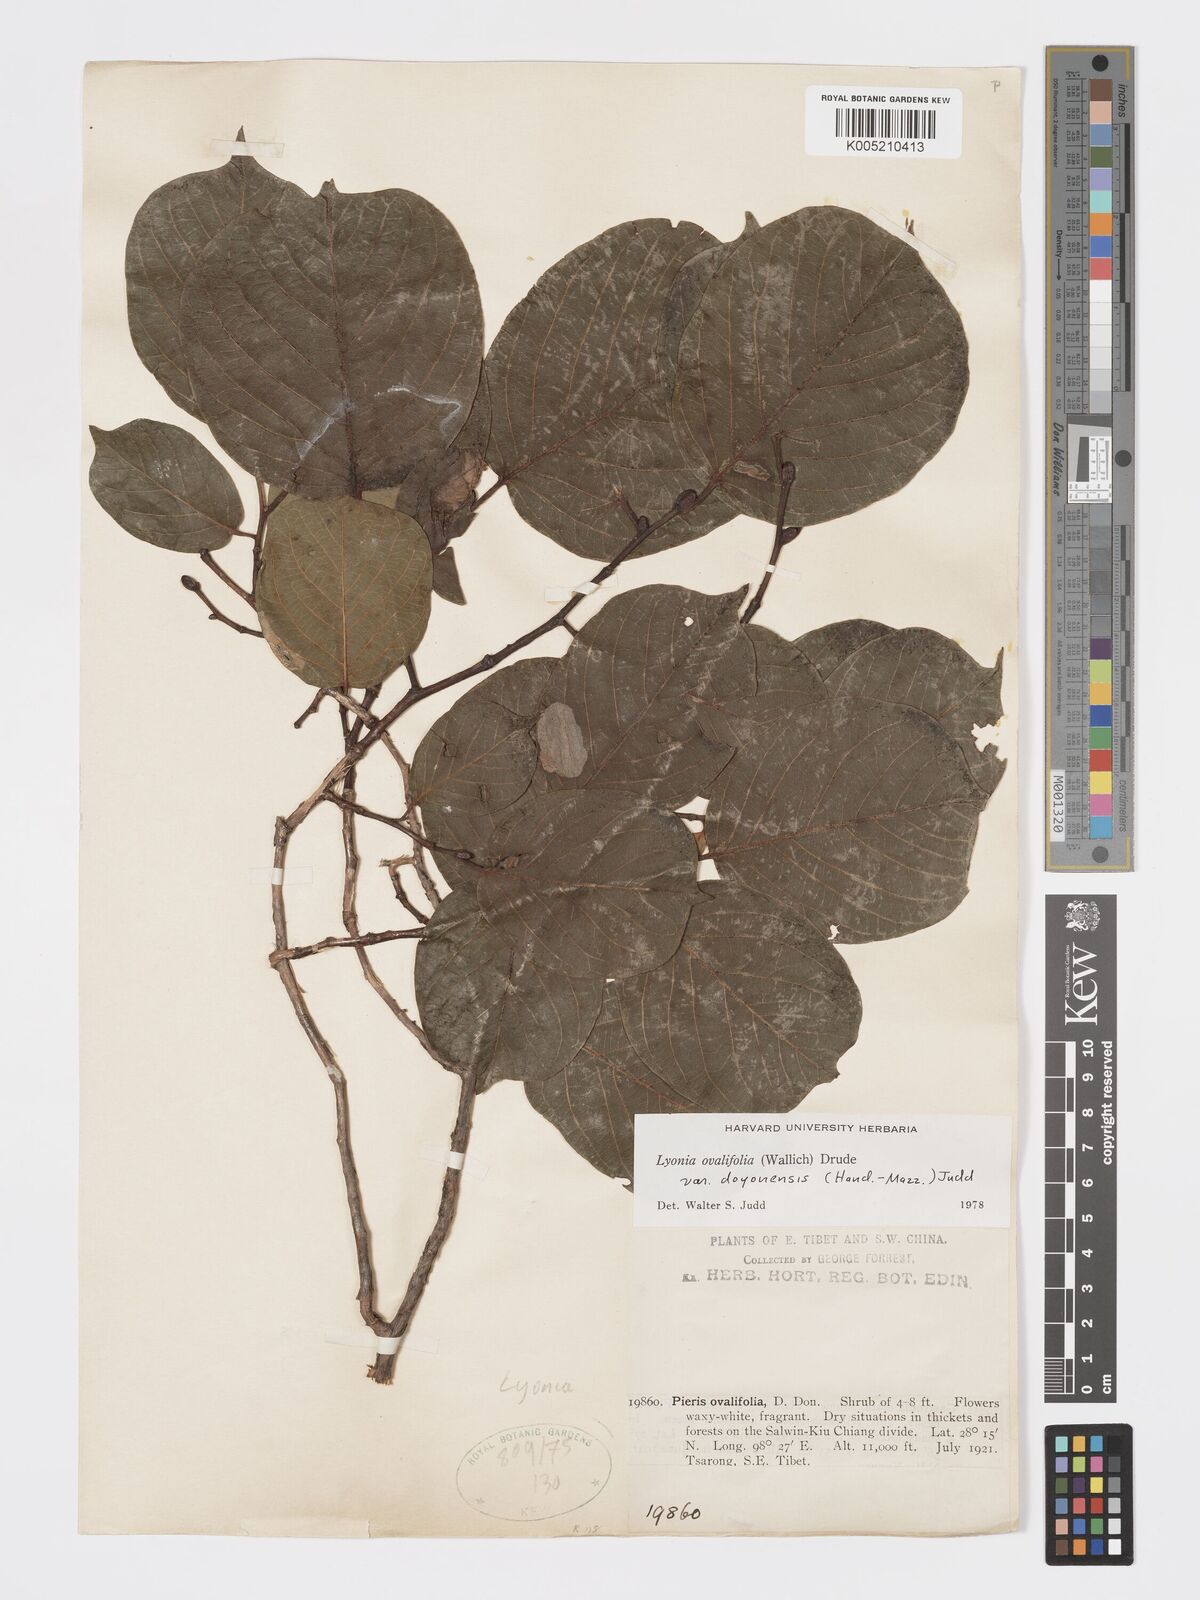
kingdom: Plantae
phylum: Tracheophyta
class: Magnoliopsida
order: Ericales
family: Ericaceae
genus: Lyonia
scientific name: Lyonia doyonensis
